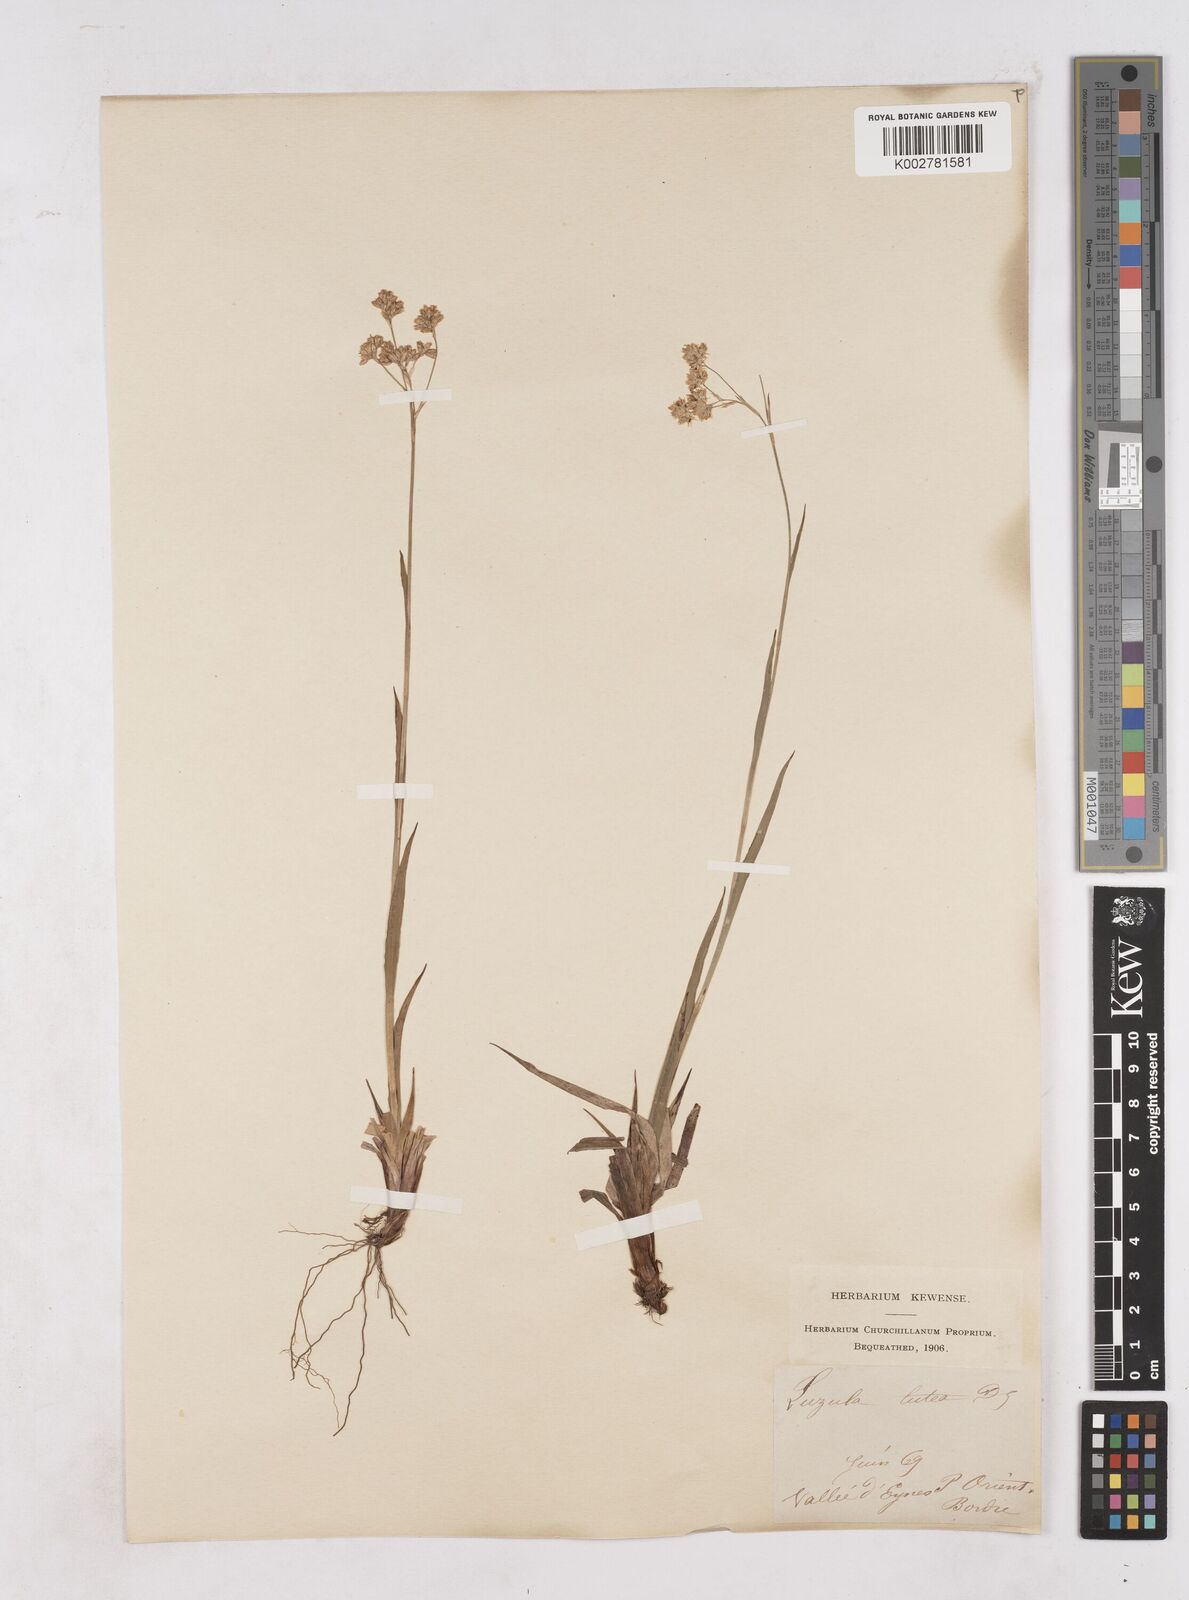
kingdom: Plantae
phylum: Tracheophyta
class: Liliopsida
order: Poales
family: Juncaceae
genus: Luzula
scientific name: Luzula lutea
